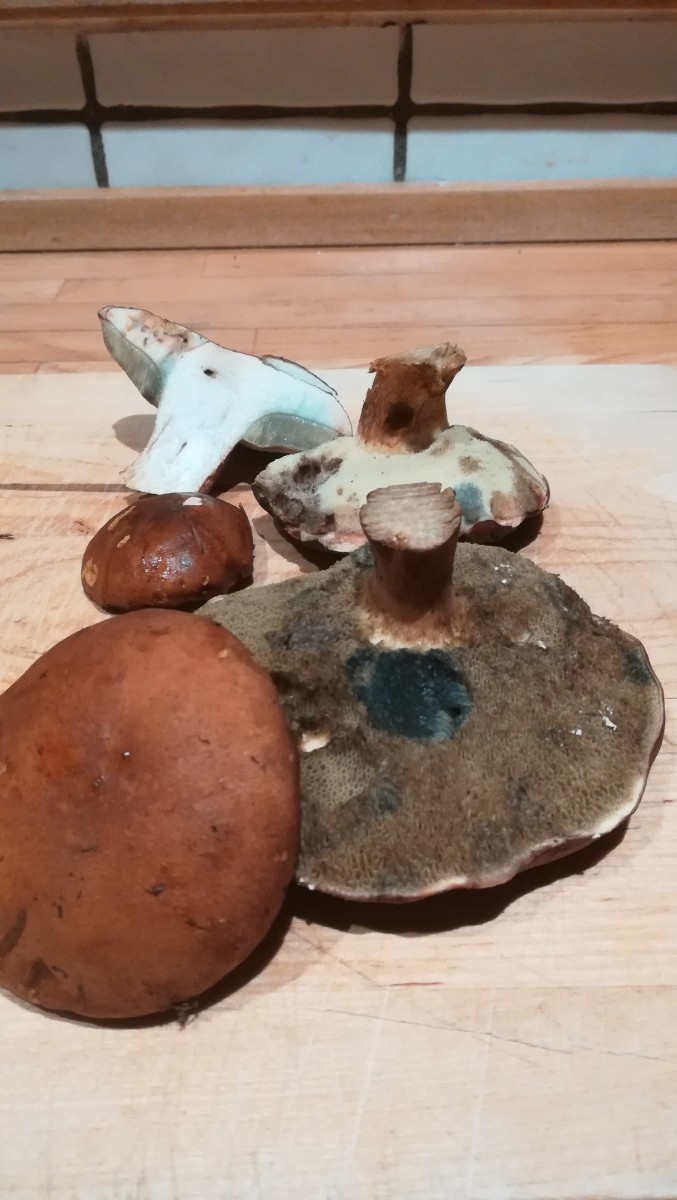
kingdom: Fungi
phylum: Basidiomycota
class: Agaricomycetes
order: Boletales
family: Boletaceae
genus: Imleria
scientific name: Imleria badia
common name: brunstokket rørhat
